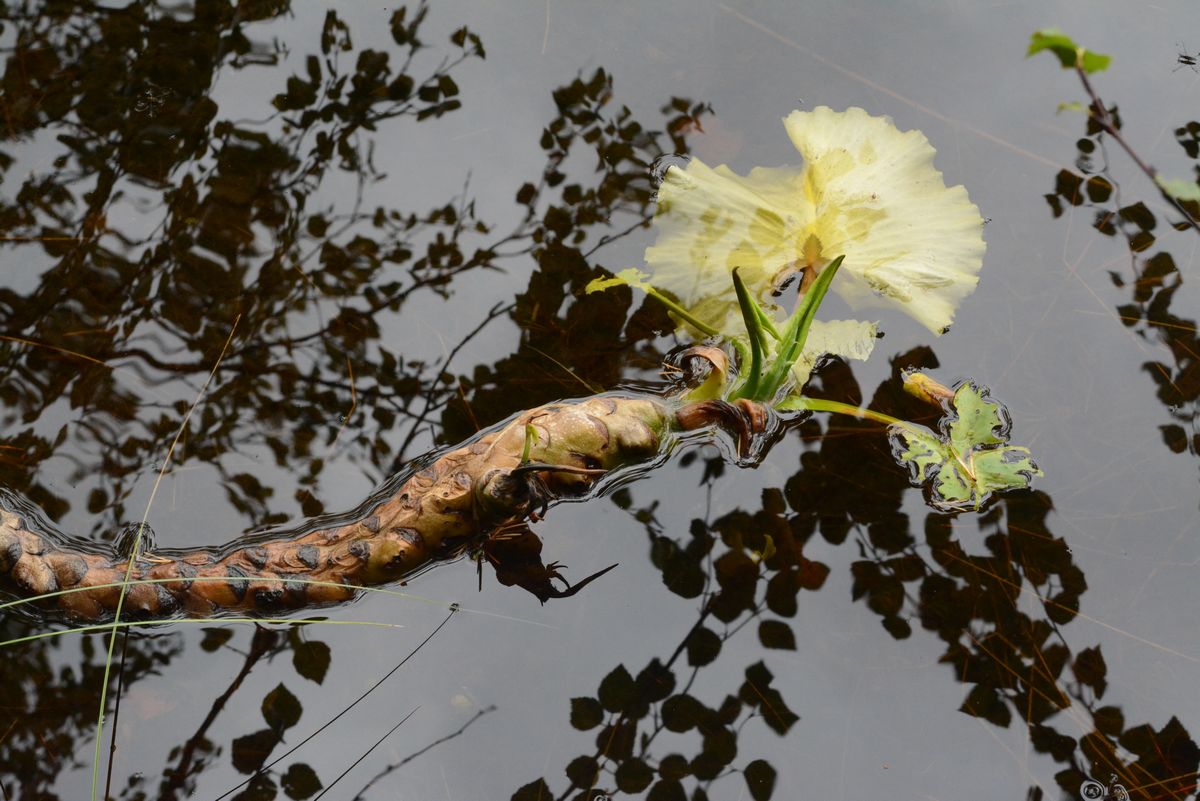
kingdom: Plantae
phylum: Tracheophyta
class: Magnoliopsida
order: Nymphaeales
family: Nymphaeaceae
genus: Nuphar
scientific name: Nuphar lutea
